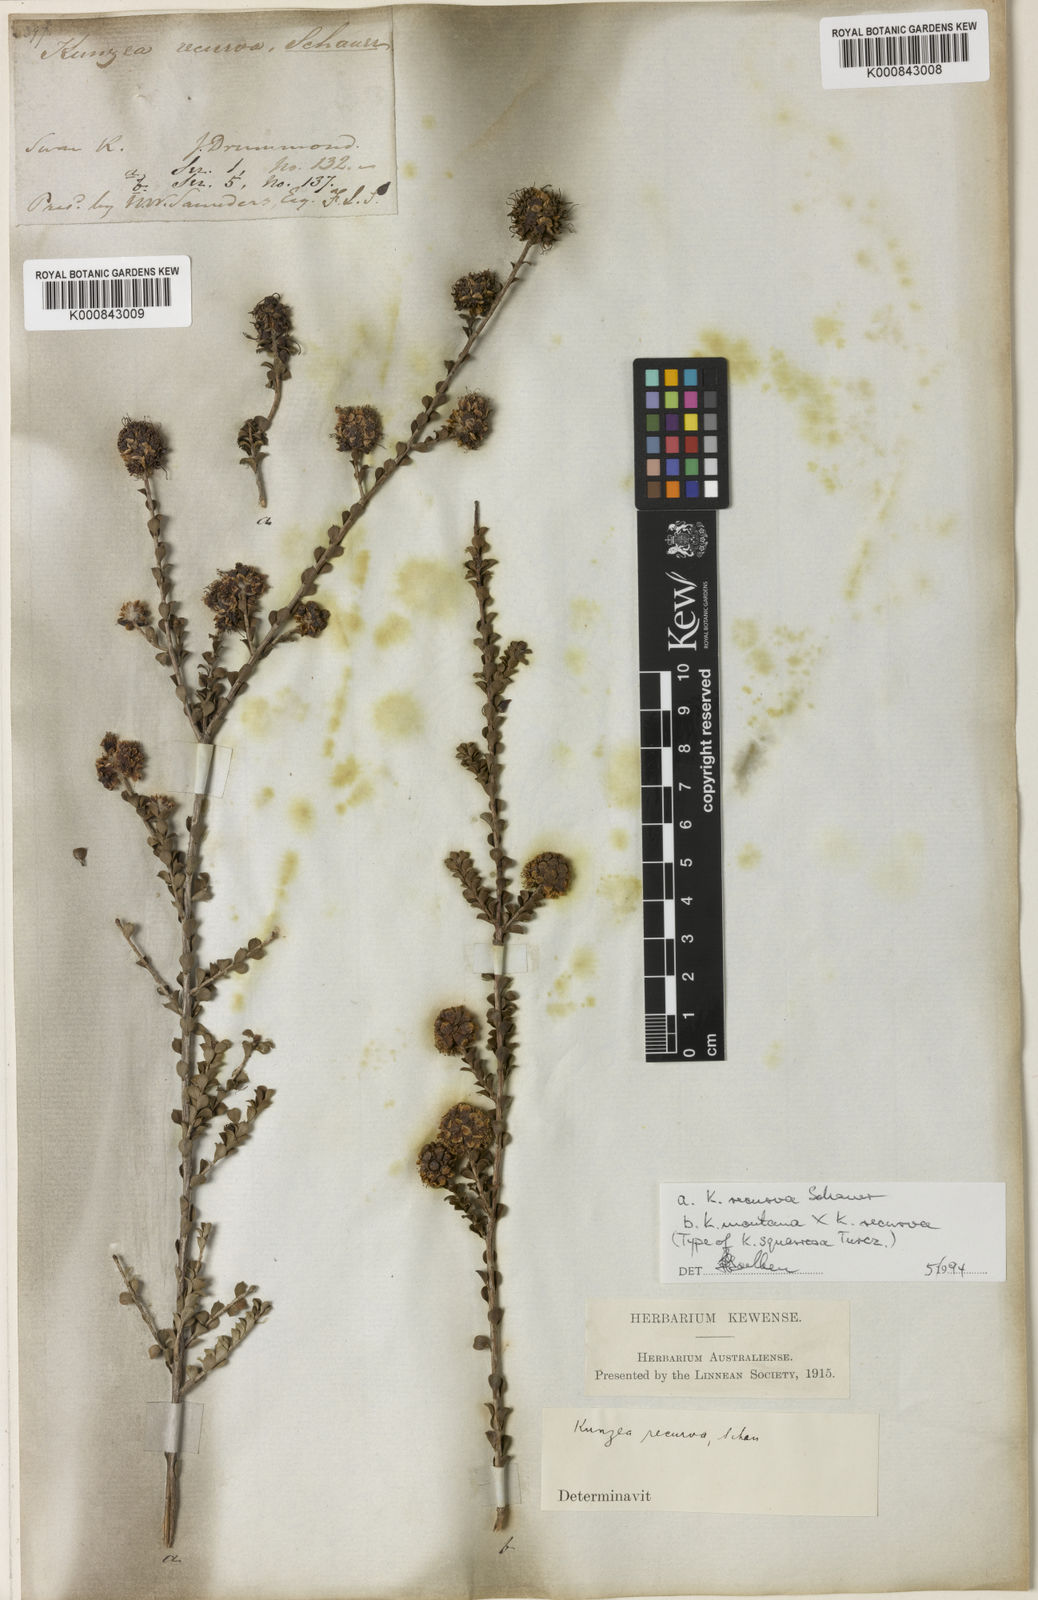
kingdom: Plantae
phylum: Tracheophyta
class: Magnoliopsida
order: Myrtales
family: Myrtaceae
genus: Kunzea
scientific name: Kunzea montana
